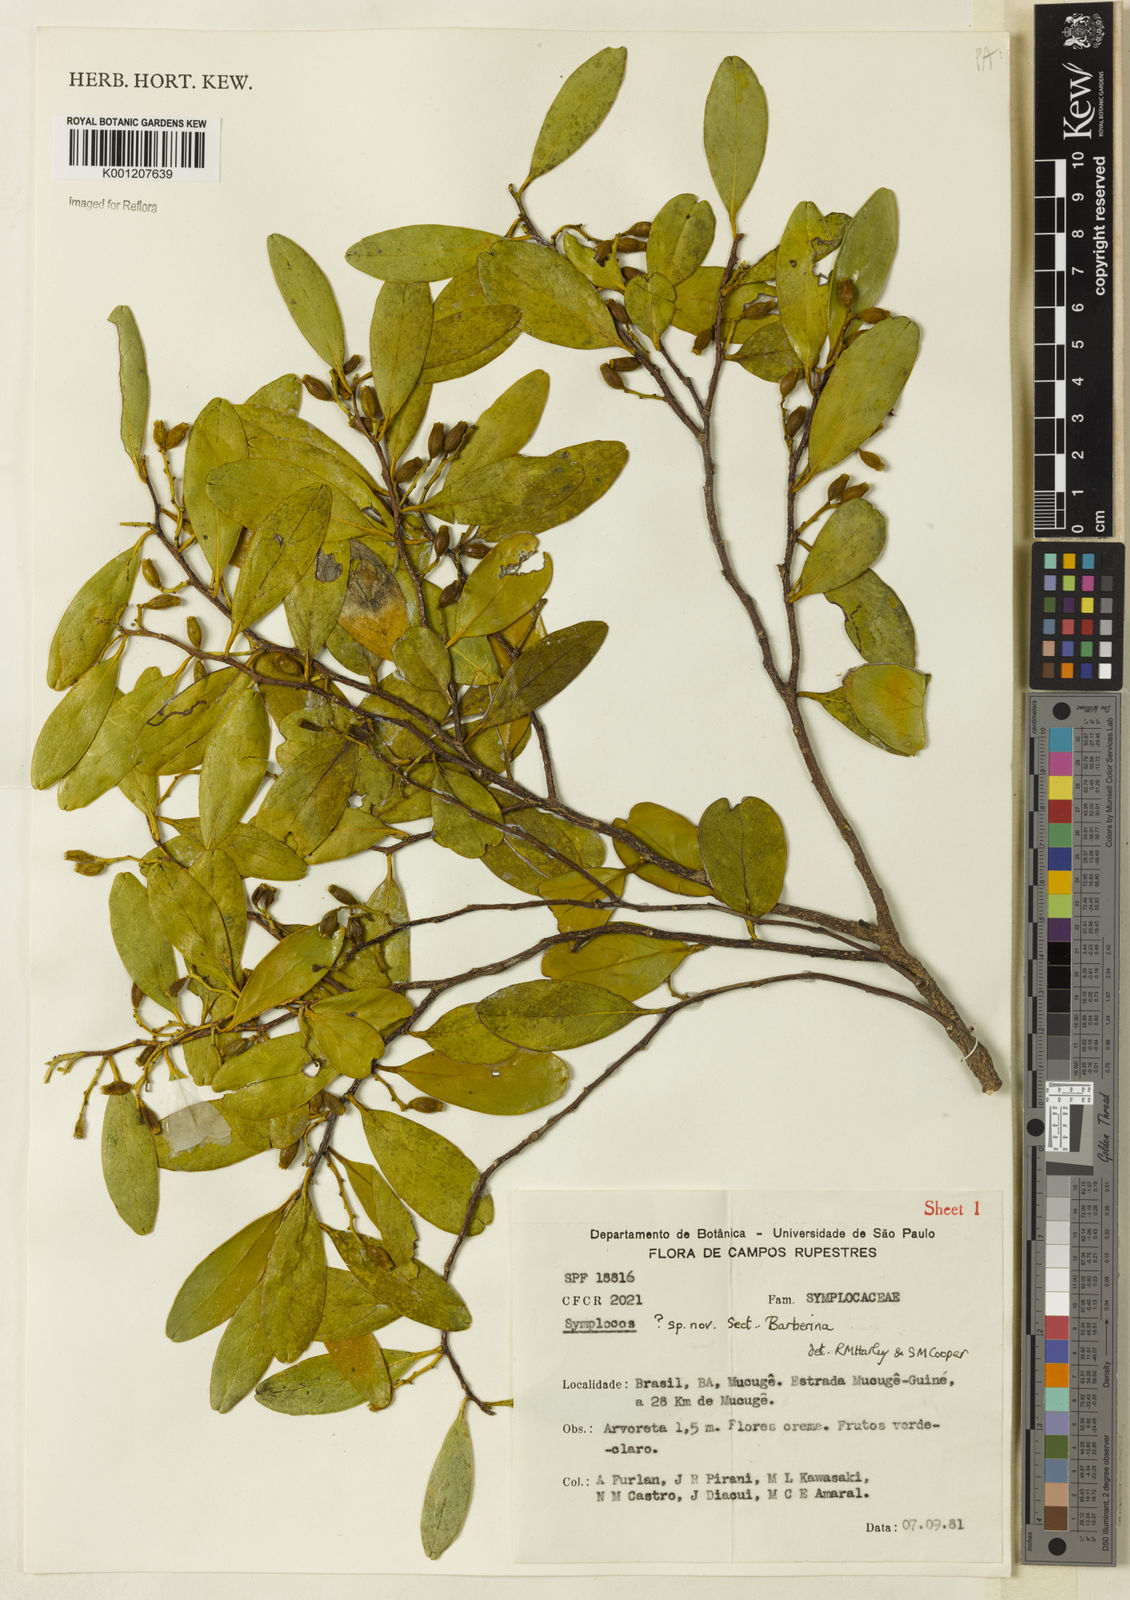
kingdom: Plantae
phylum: Tracheophyta
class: Magnoliopsida
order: Ericales
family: Symplocaceae
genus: Symplocos
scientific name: Symplocos oblongifolia
